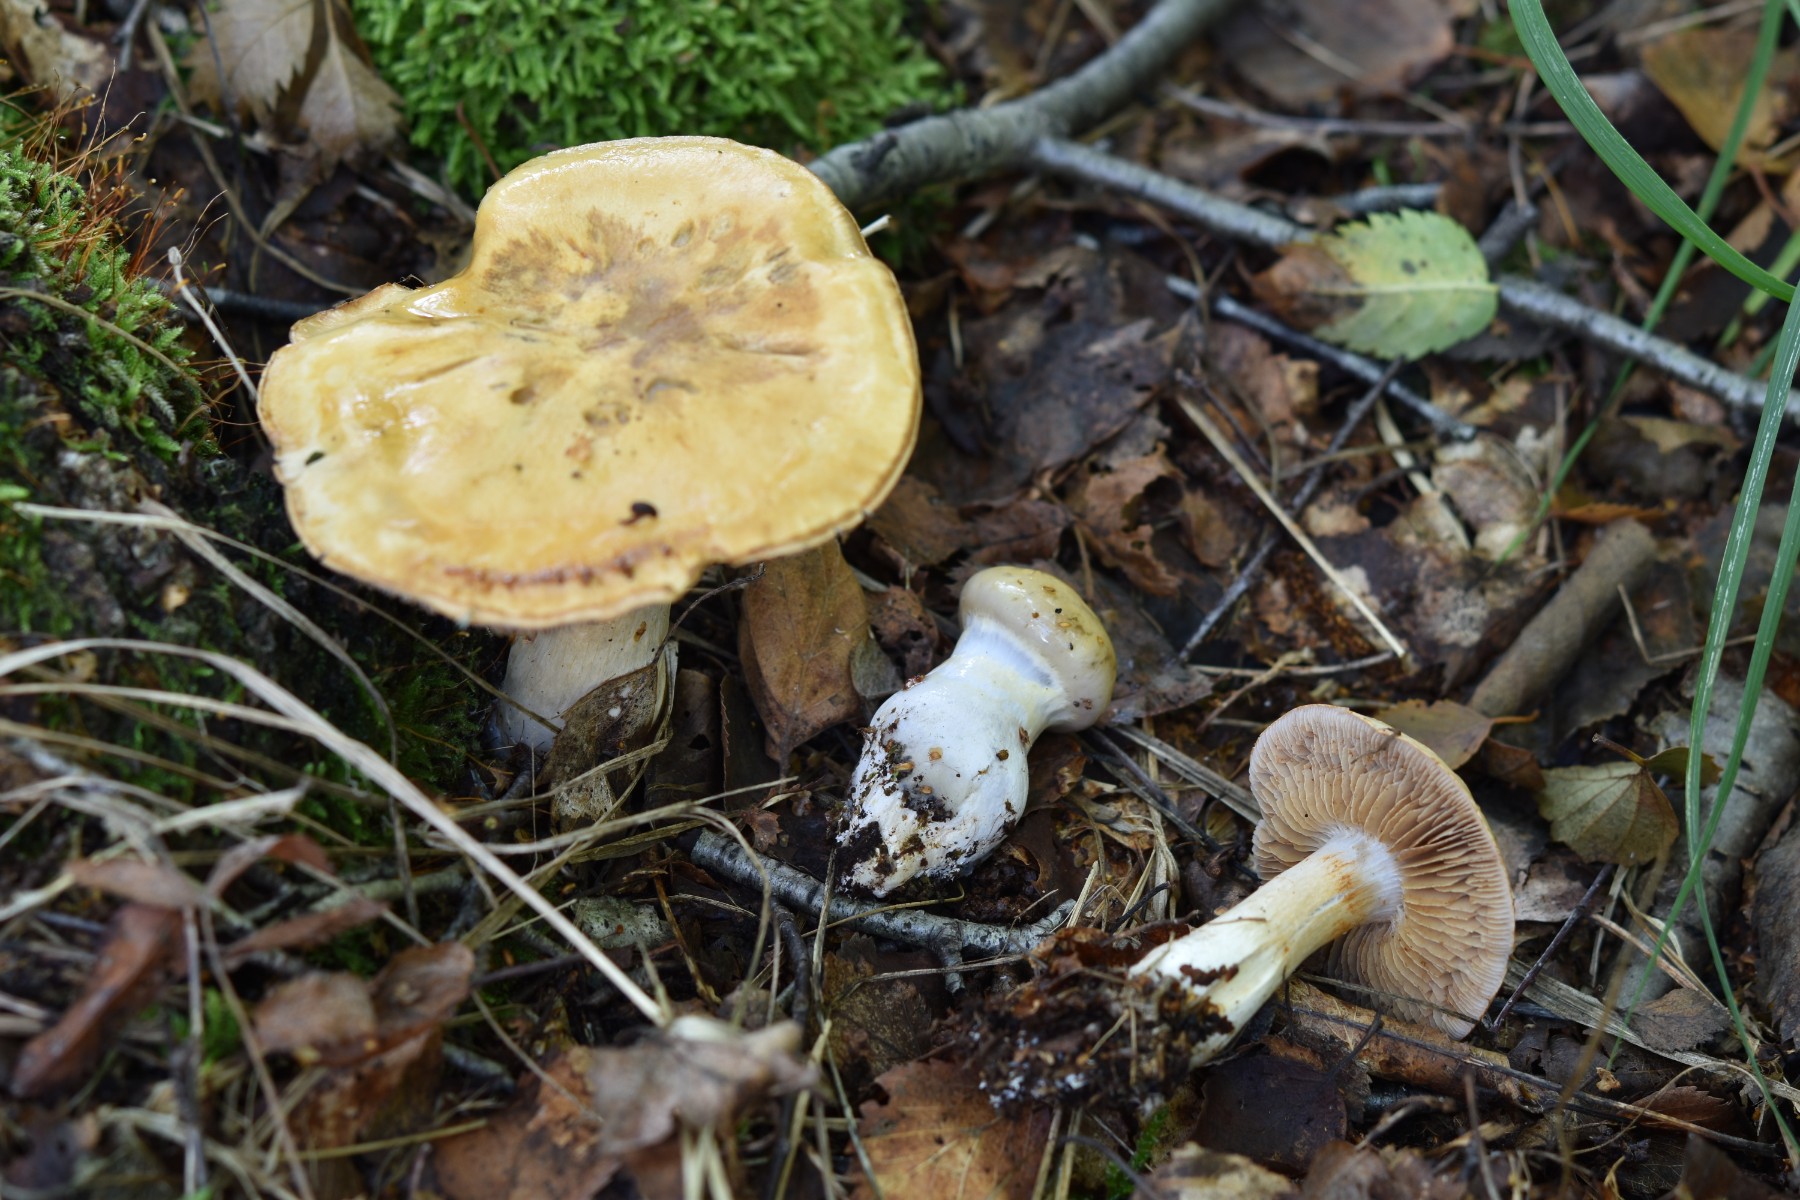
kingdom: Fungi
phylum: Basidiomycota
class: Agaricomycetes
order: Agaricales
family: Cortinariaceae
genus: Cortinarius
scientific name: Cortinarius delibutus
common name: gul slørhat
